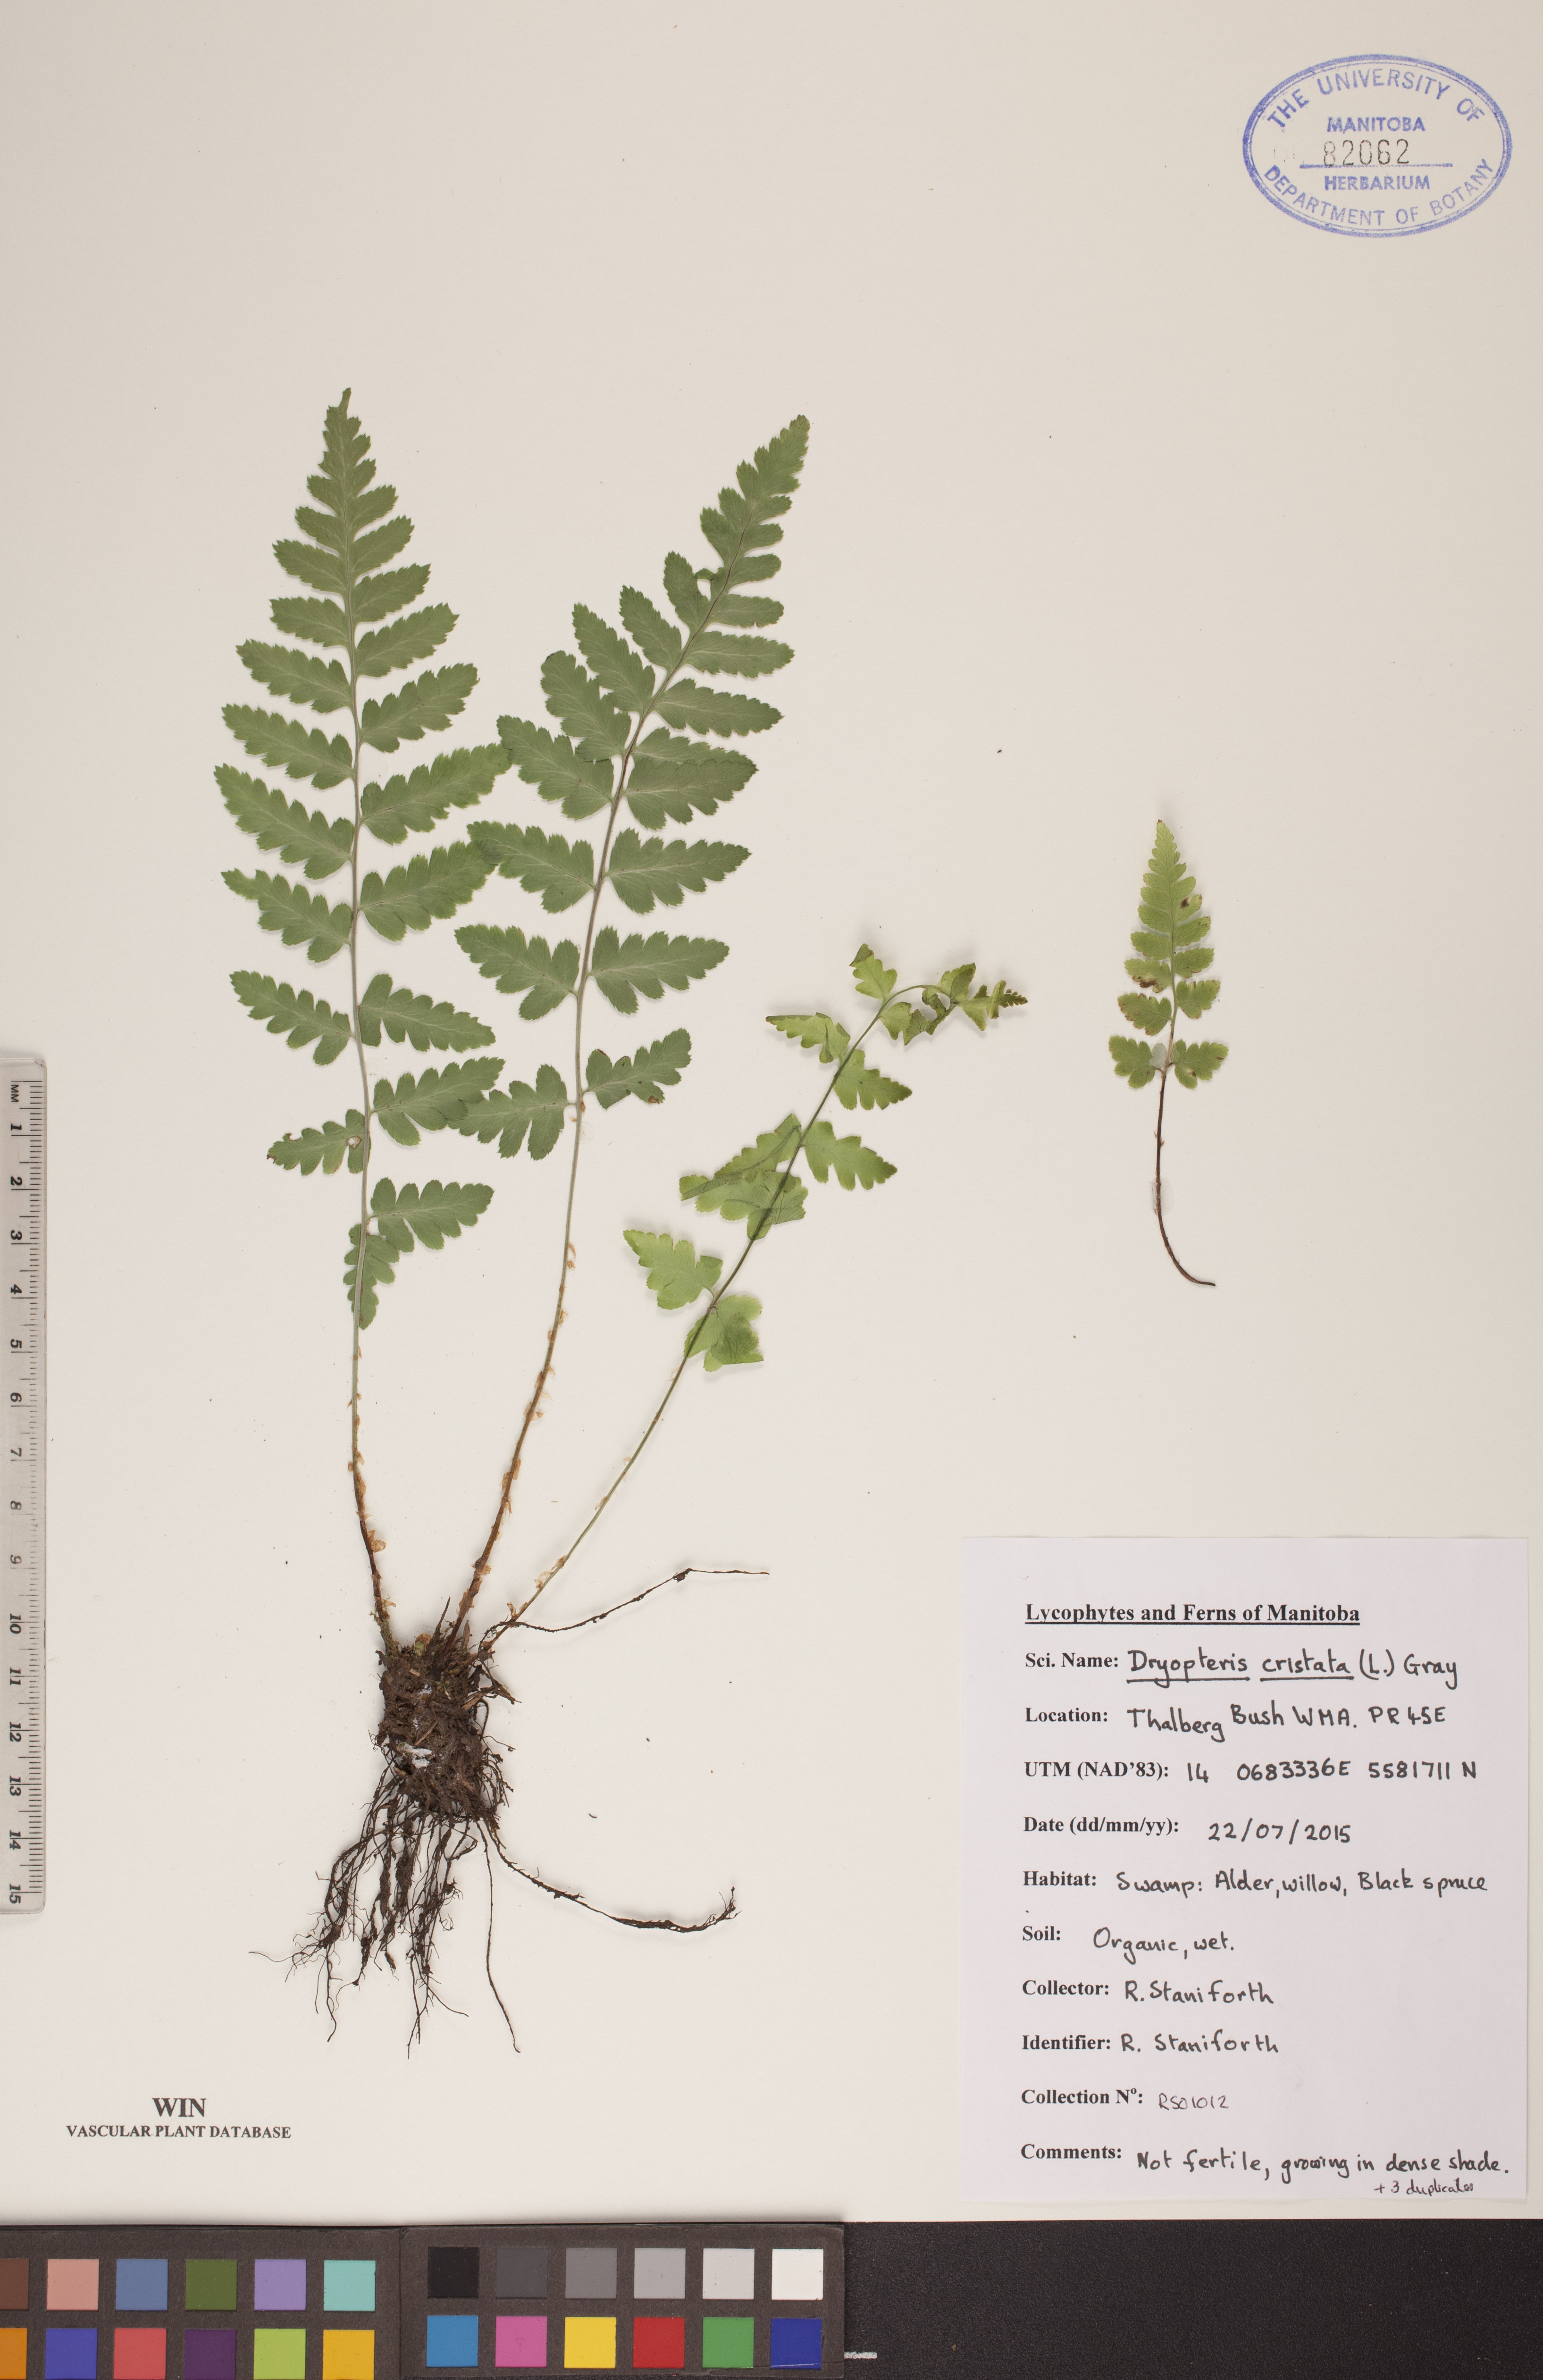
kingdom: Plantae
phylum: Tracheophyta
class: Polypodiopsida
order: Polypodiales
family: Dryopteridaceae
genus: Dryopteris
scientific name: Dryopteris cristata
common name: Crested wood fern
